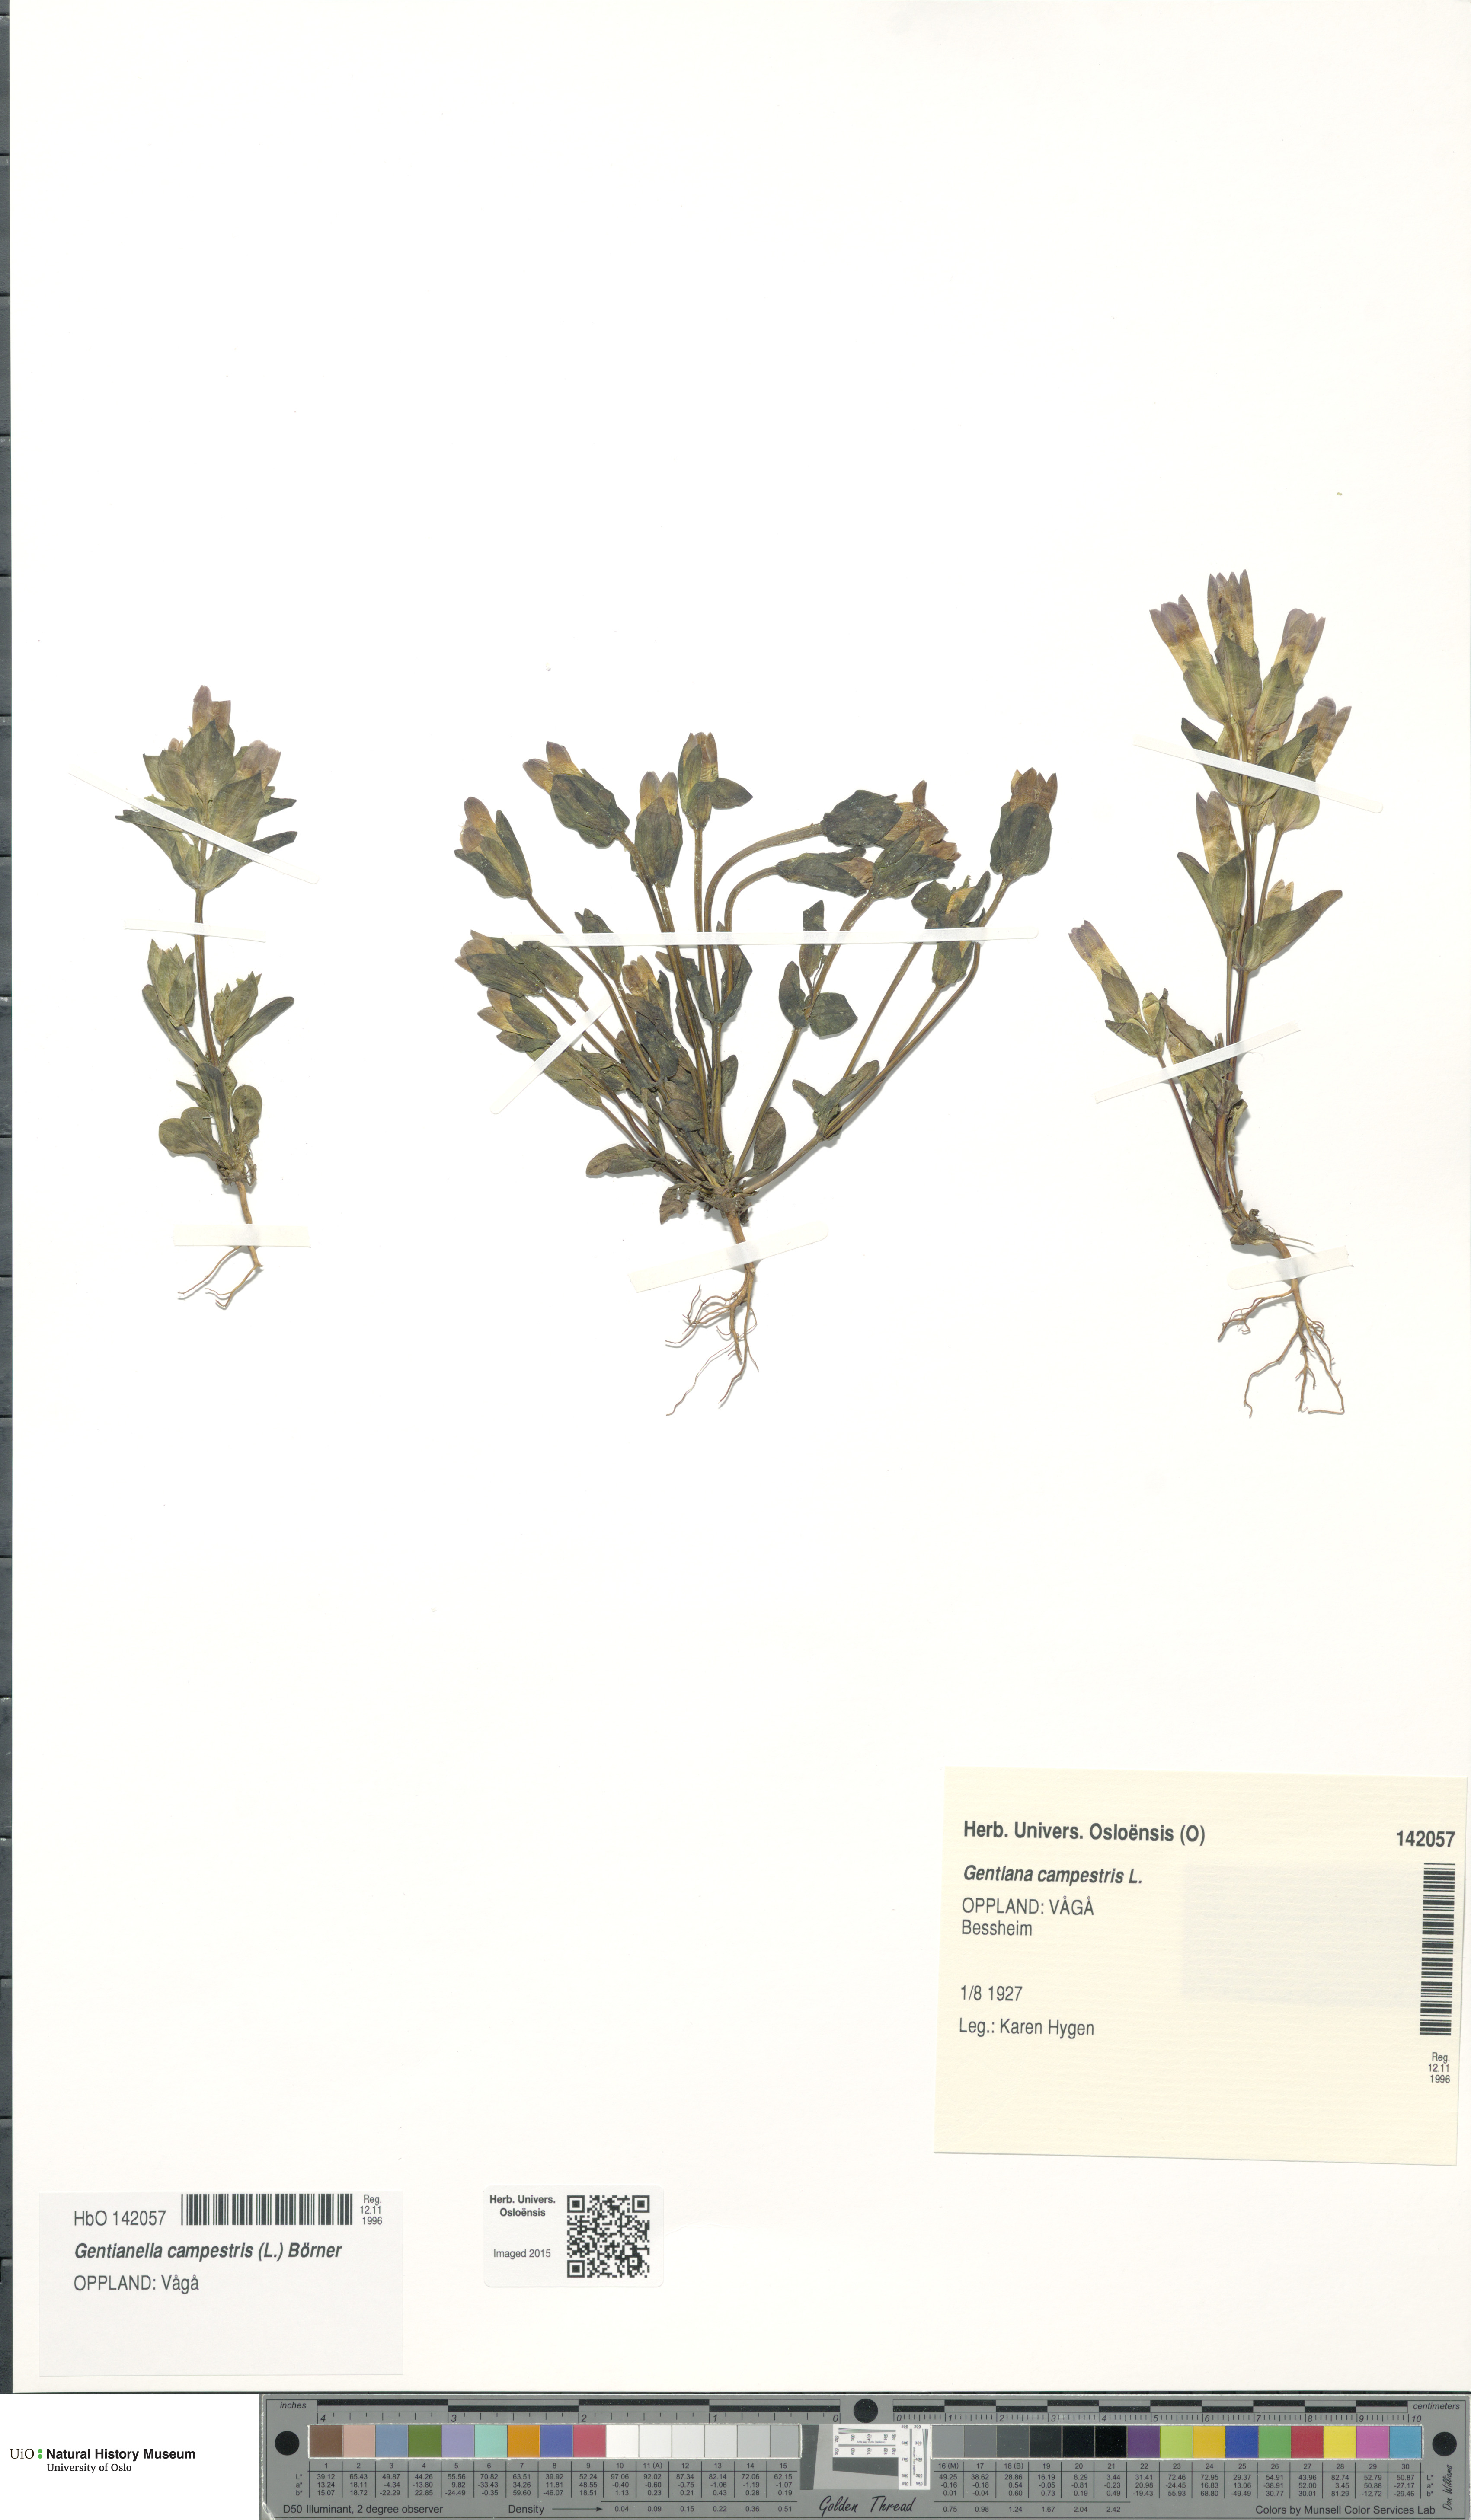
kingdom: Plantae
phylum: Tracheophyta
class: Magnoliopsida
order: Gentianales
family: Gentianaceae
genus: Gentianella
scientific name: Gentianella campestris
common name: Field gentian
